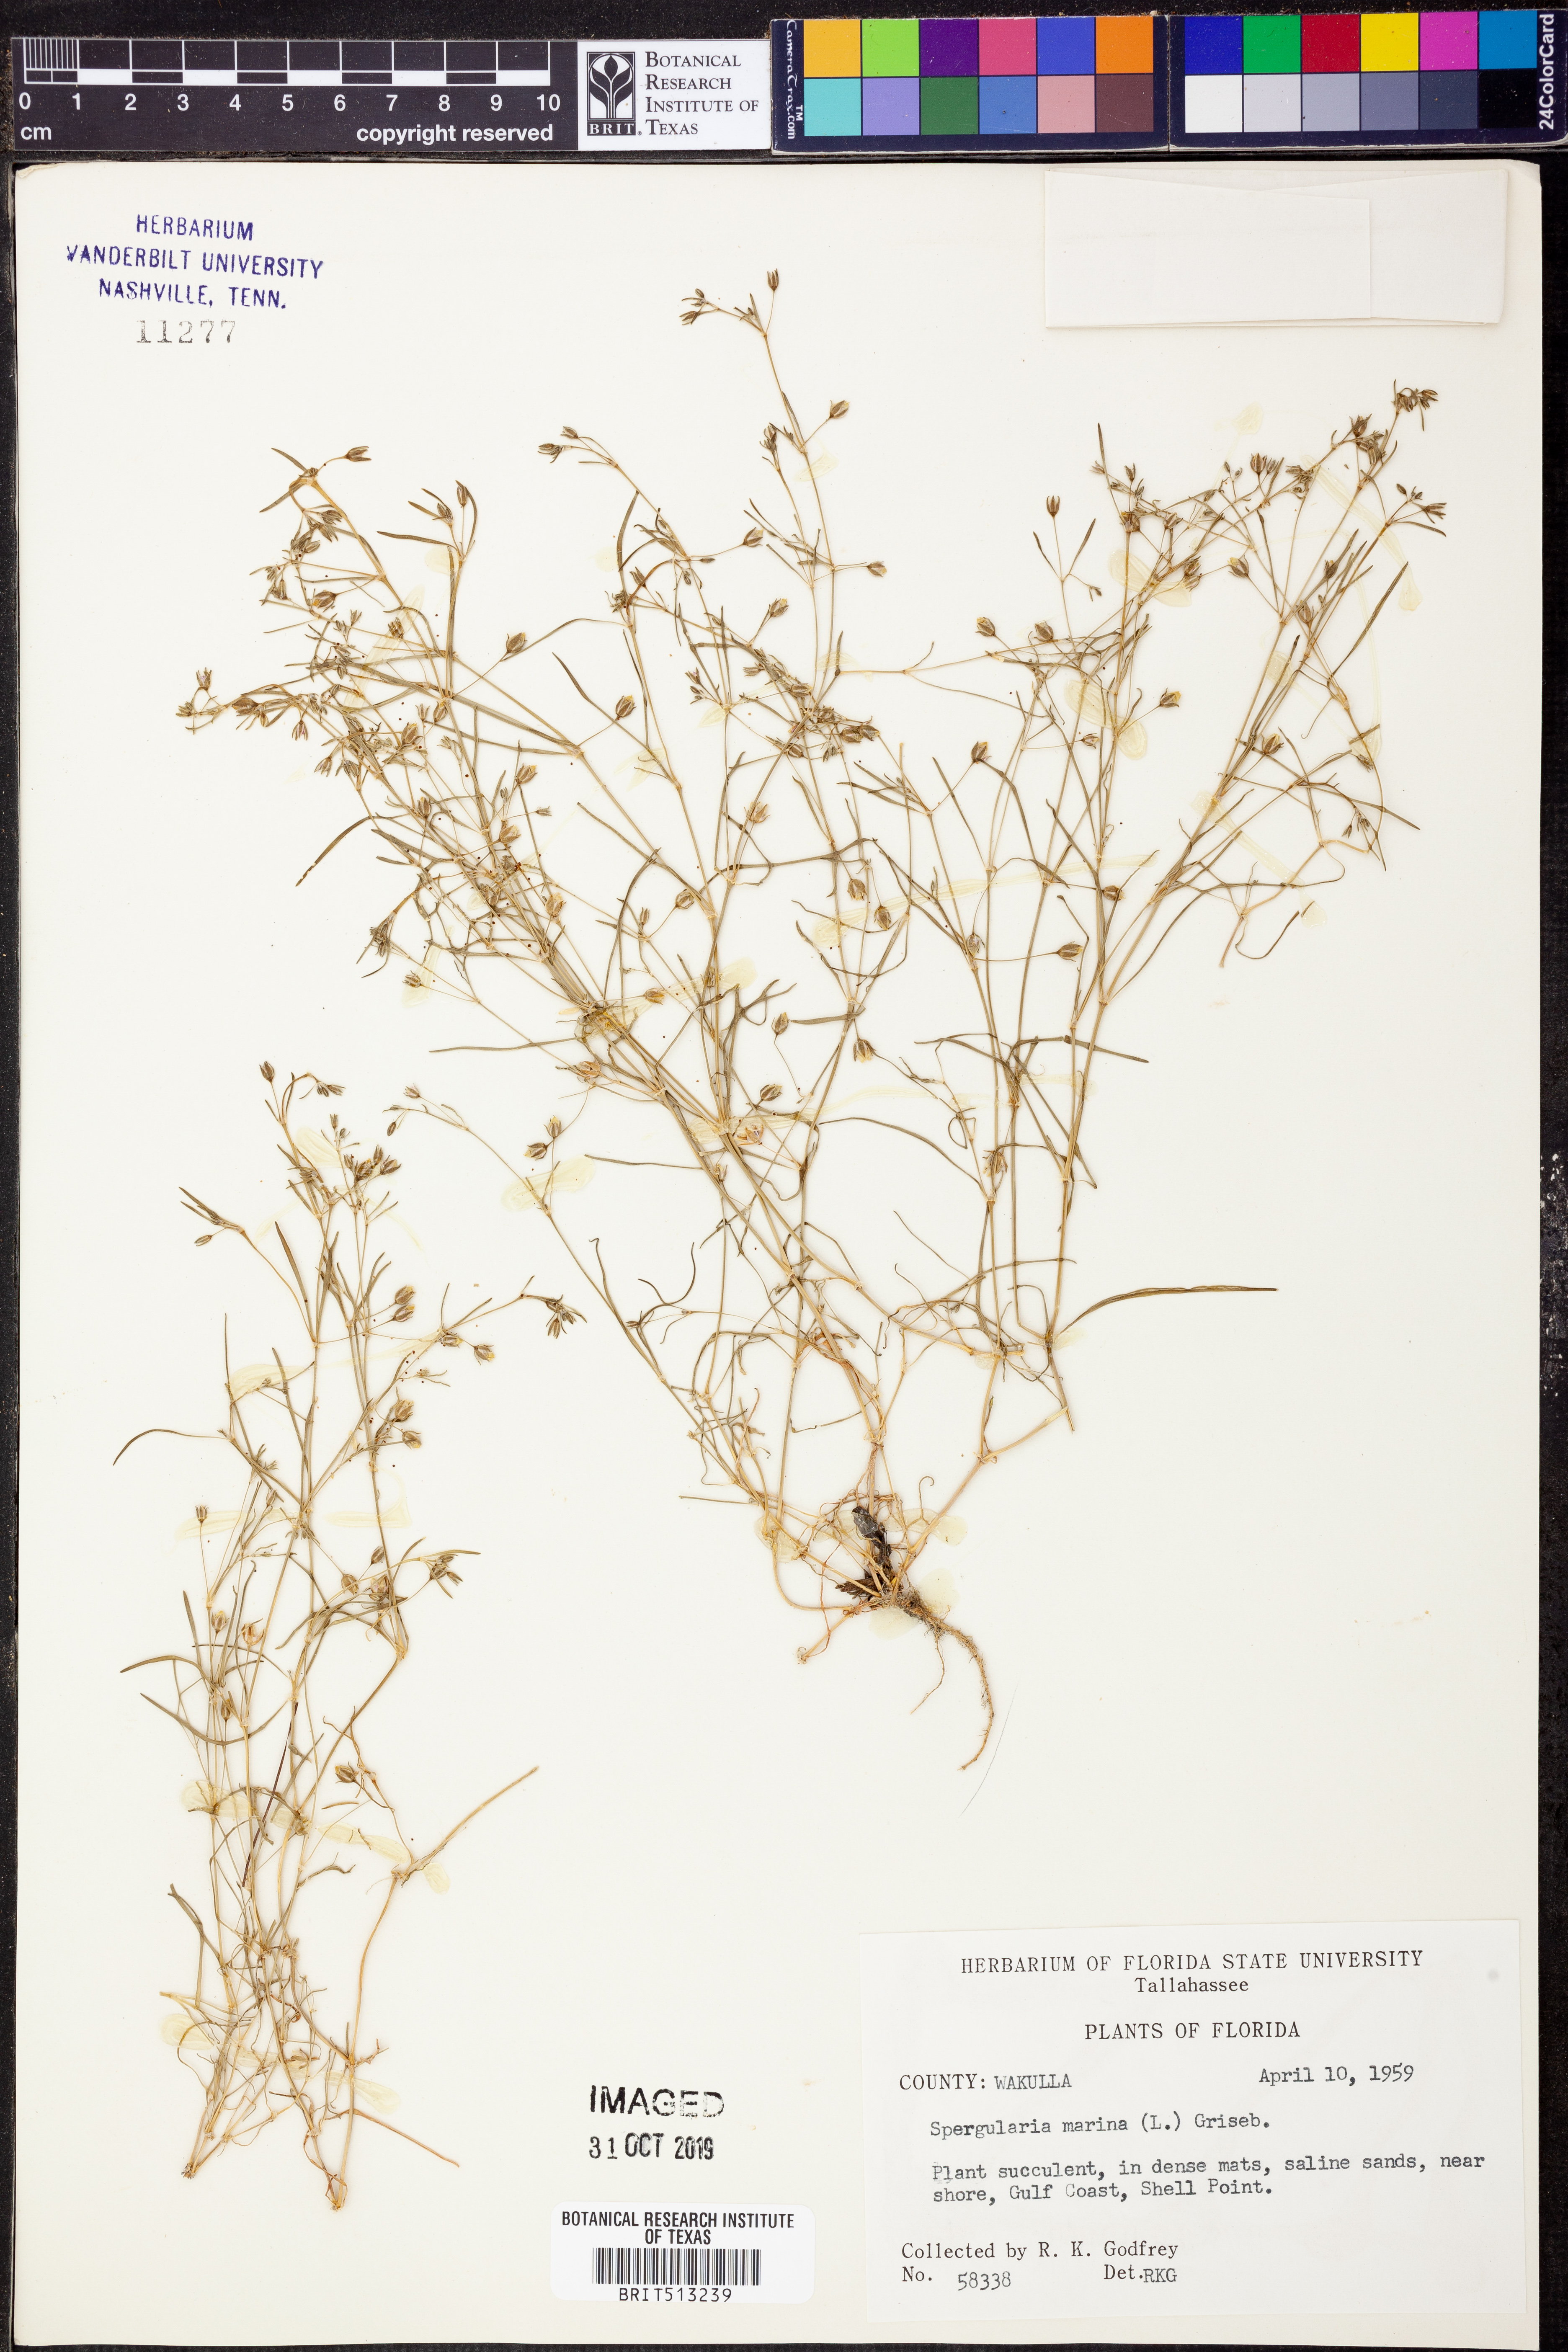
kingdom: Plantae
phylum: Tracheophyta
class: Magnoliopsida
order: Caryophyllales
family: Caryophyllaceae
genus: Spergularia
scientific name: Spergularia marina
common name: Lesser sea-spurrey
